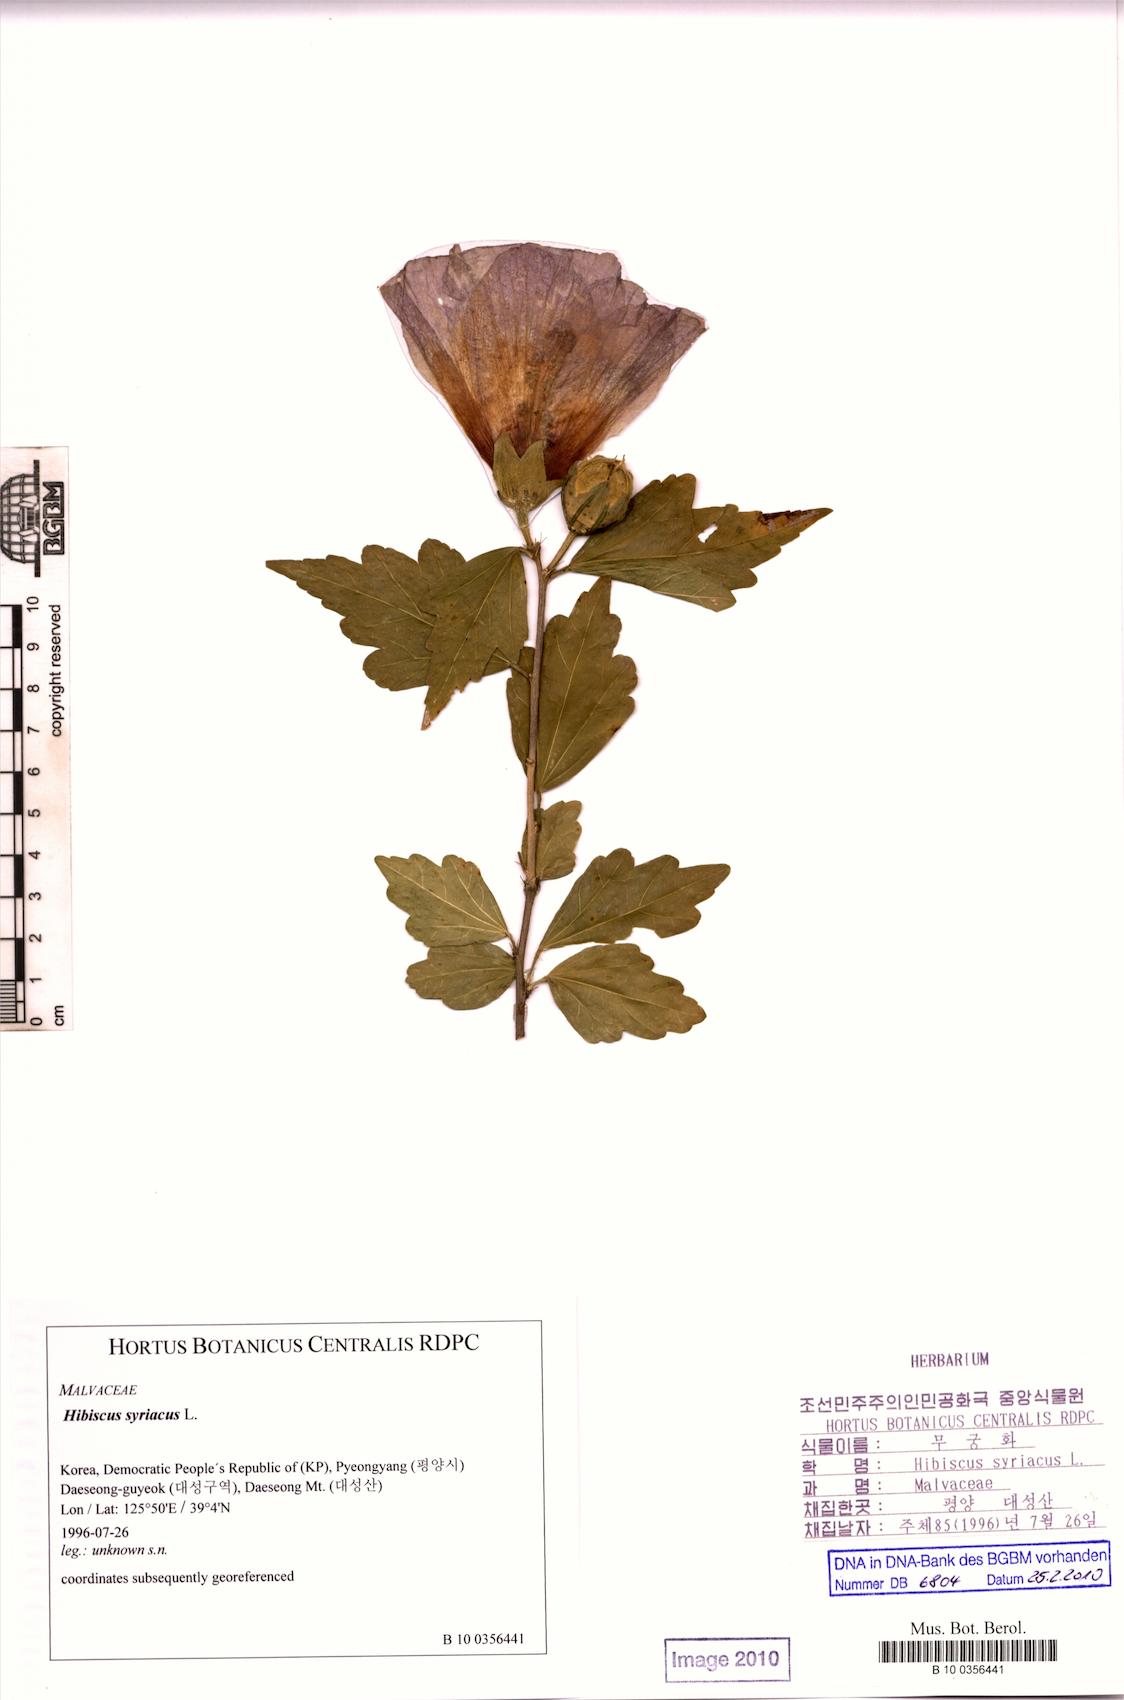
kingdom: Plantae
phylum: Tracheophyta
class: Magnoliopsida
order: Malvales
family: Malvaceae
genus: Hibiscus
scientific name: Hibiscus syriacus
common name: Syrian ketmia
